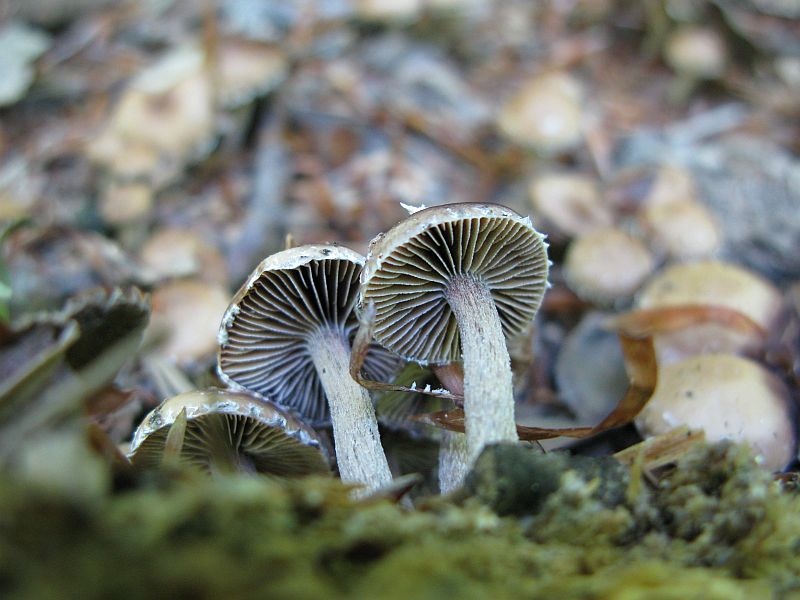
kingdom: Fungi
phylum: Basidiomycota
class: Agaricomycetes
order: Agaricales
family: Strophariaceae
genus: Deconica
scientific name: Deconica phyllogena
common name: spættet stråhat
